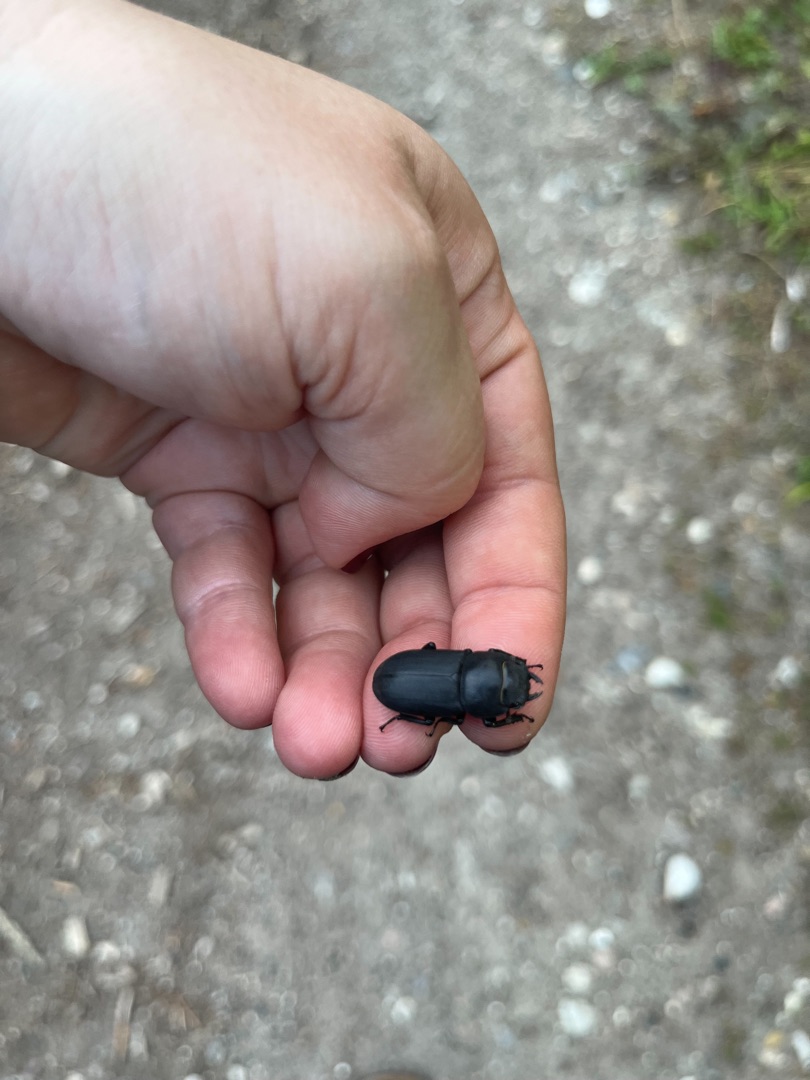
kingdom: Animalia
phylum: Arthropoda
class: Insecta
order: Coleoptera
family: Lucanidae
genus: Dorcus
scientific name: Dorcus parallelipipedus
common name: Bøghjort
